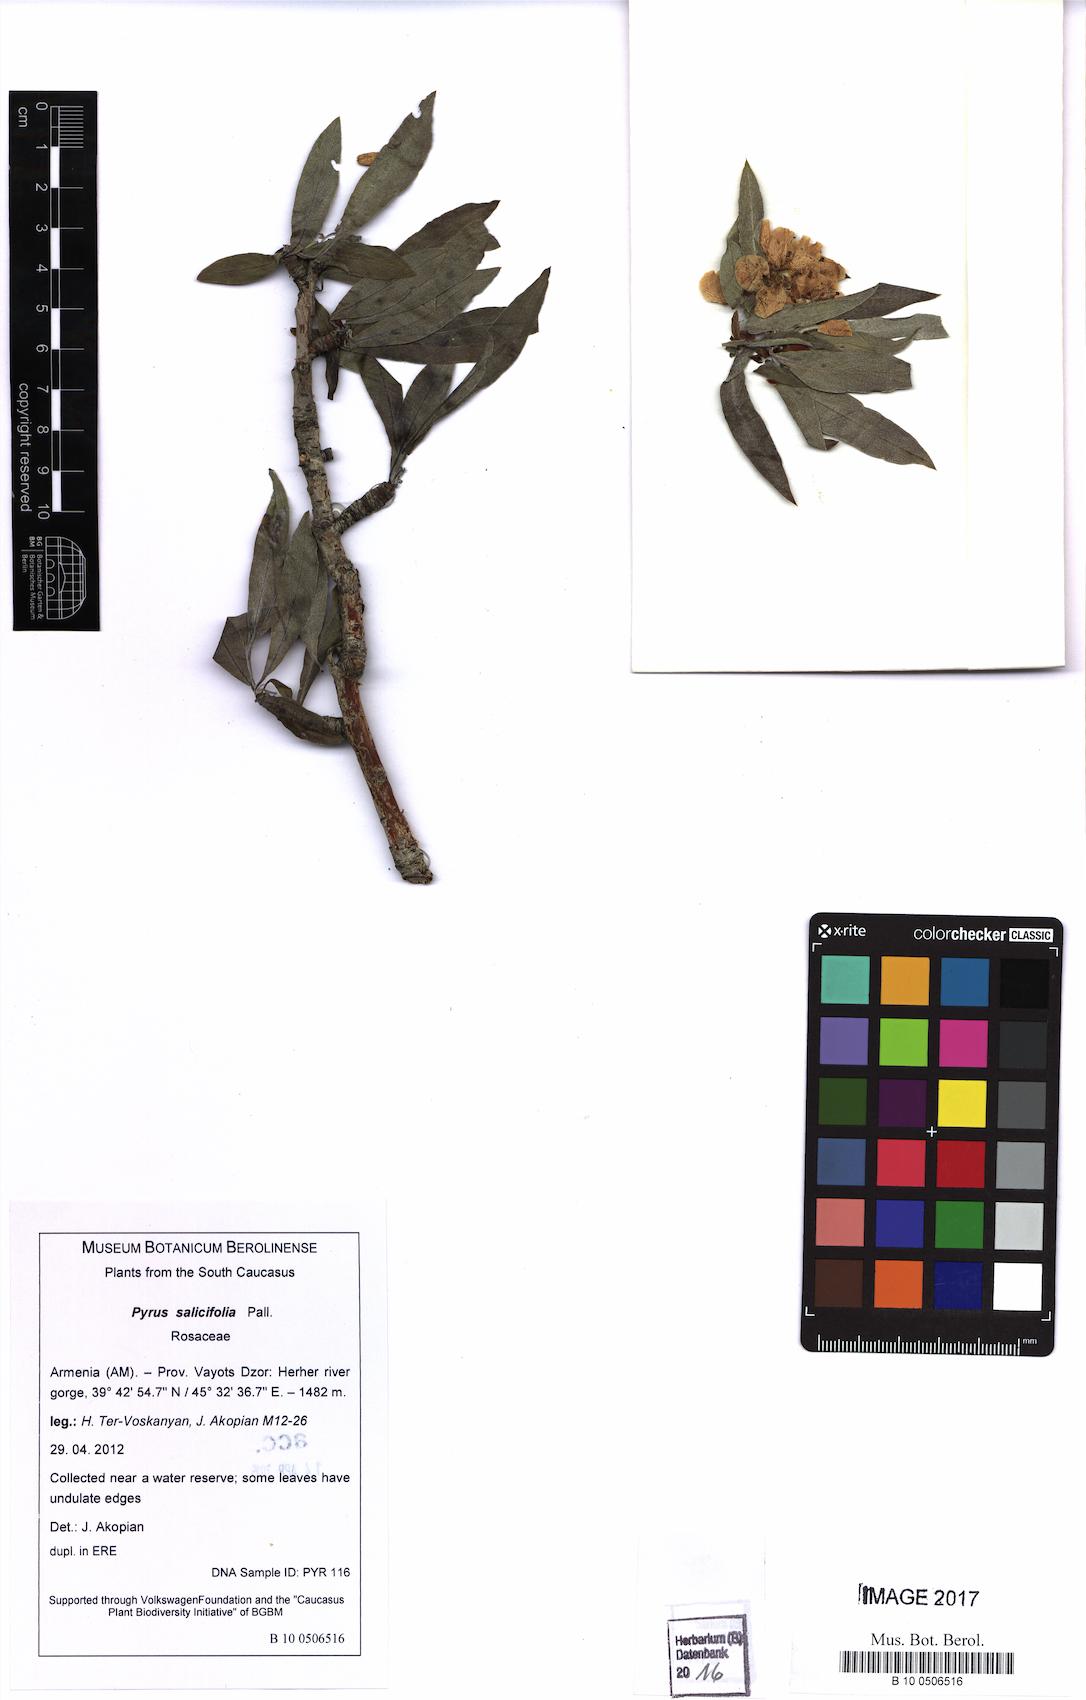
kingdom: Plantae
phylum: Tracheophyta
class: Magnoliopsida
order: Rosales
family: Rosaceae
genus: Pyrus
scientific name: Pyrus salicifolia
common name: Willow-leaved pear
